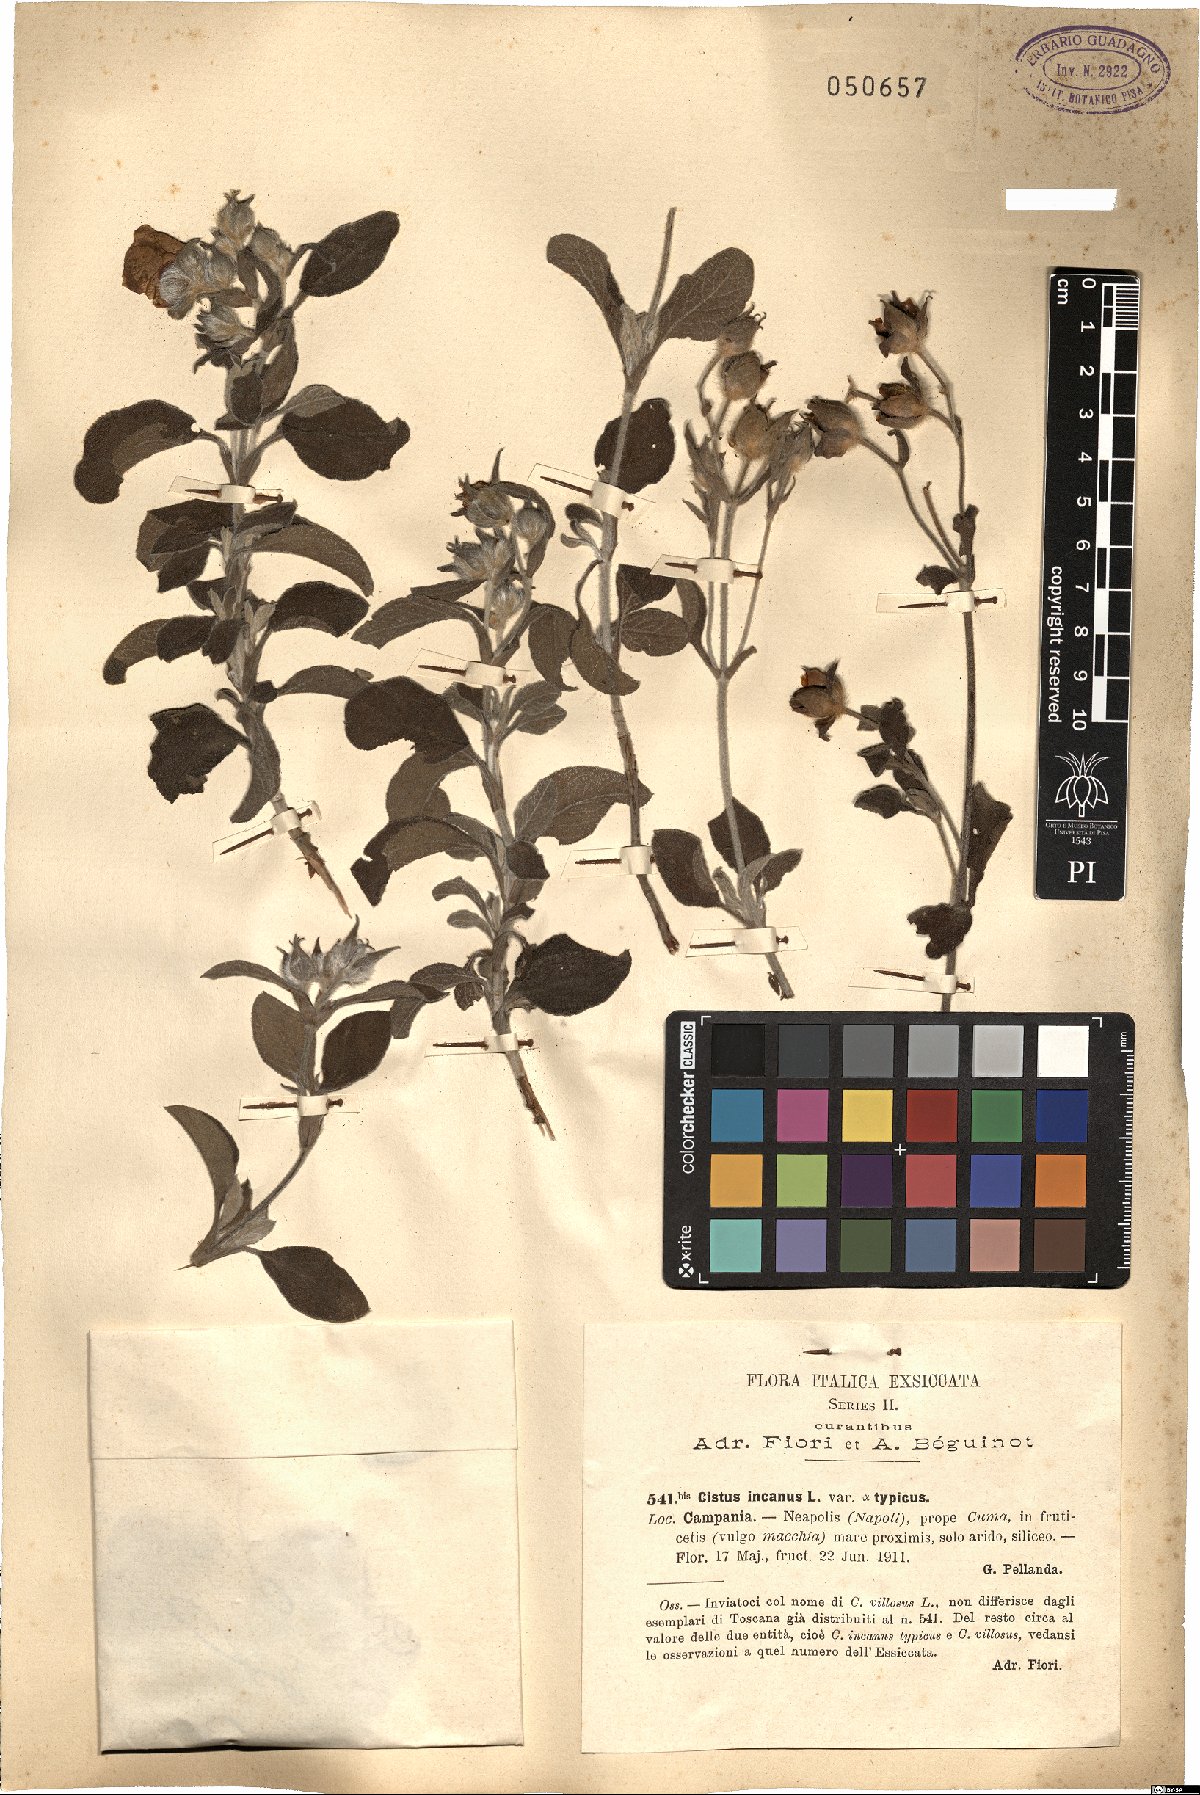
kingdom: Plantae
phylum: Tracheophyta
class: Magnoliopsida
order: Malvales
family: Cistaceae
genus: Cistus
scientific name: Cistus incanus
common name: Hairy rockrose
